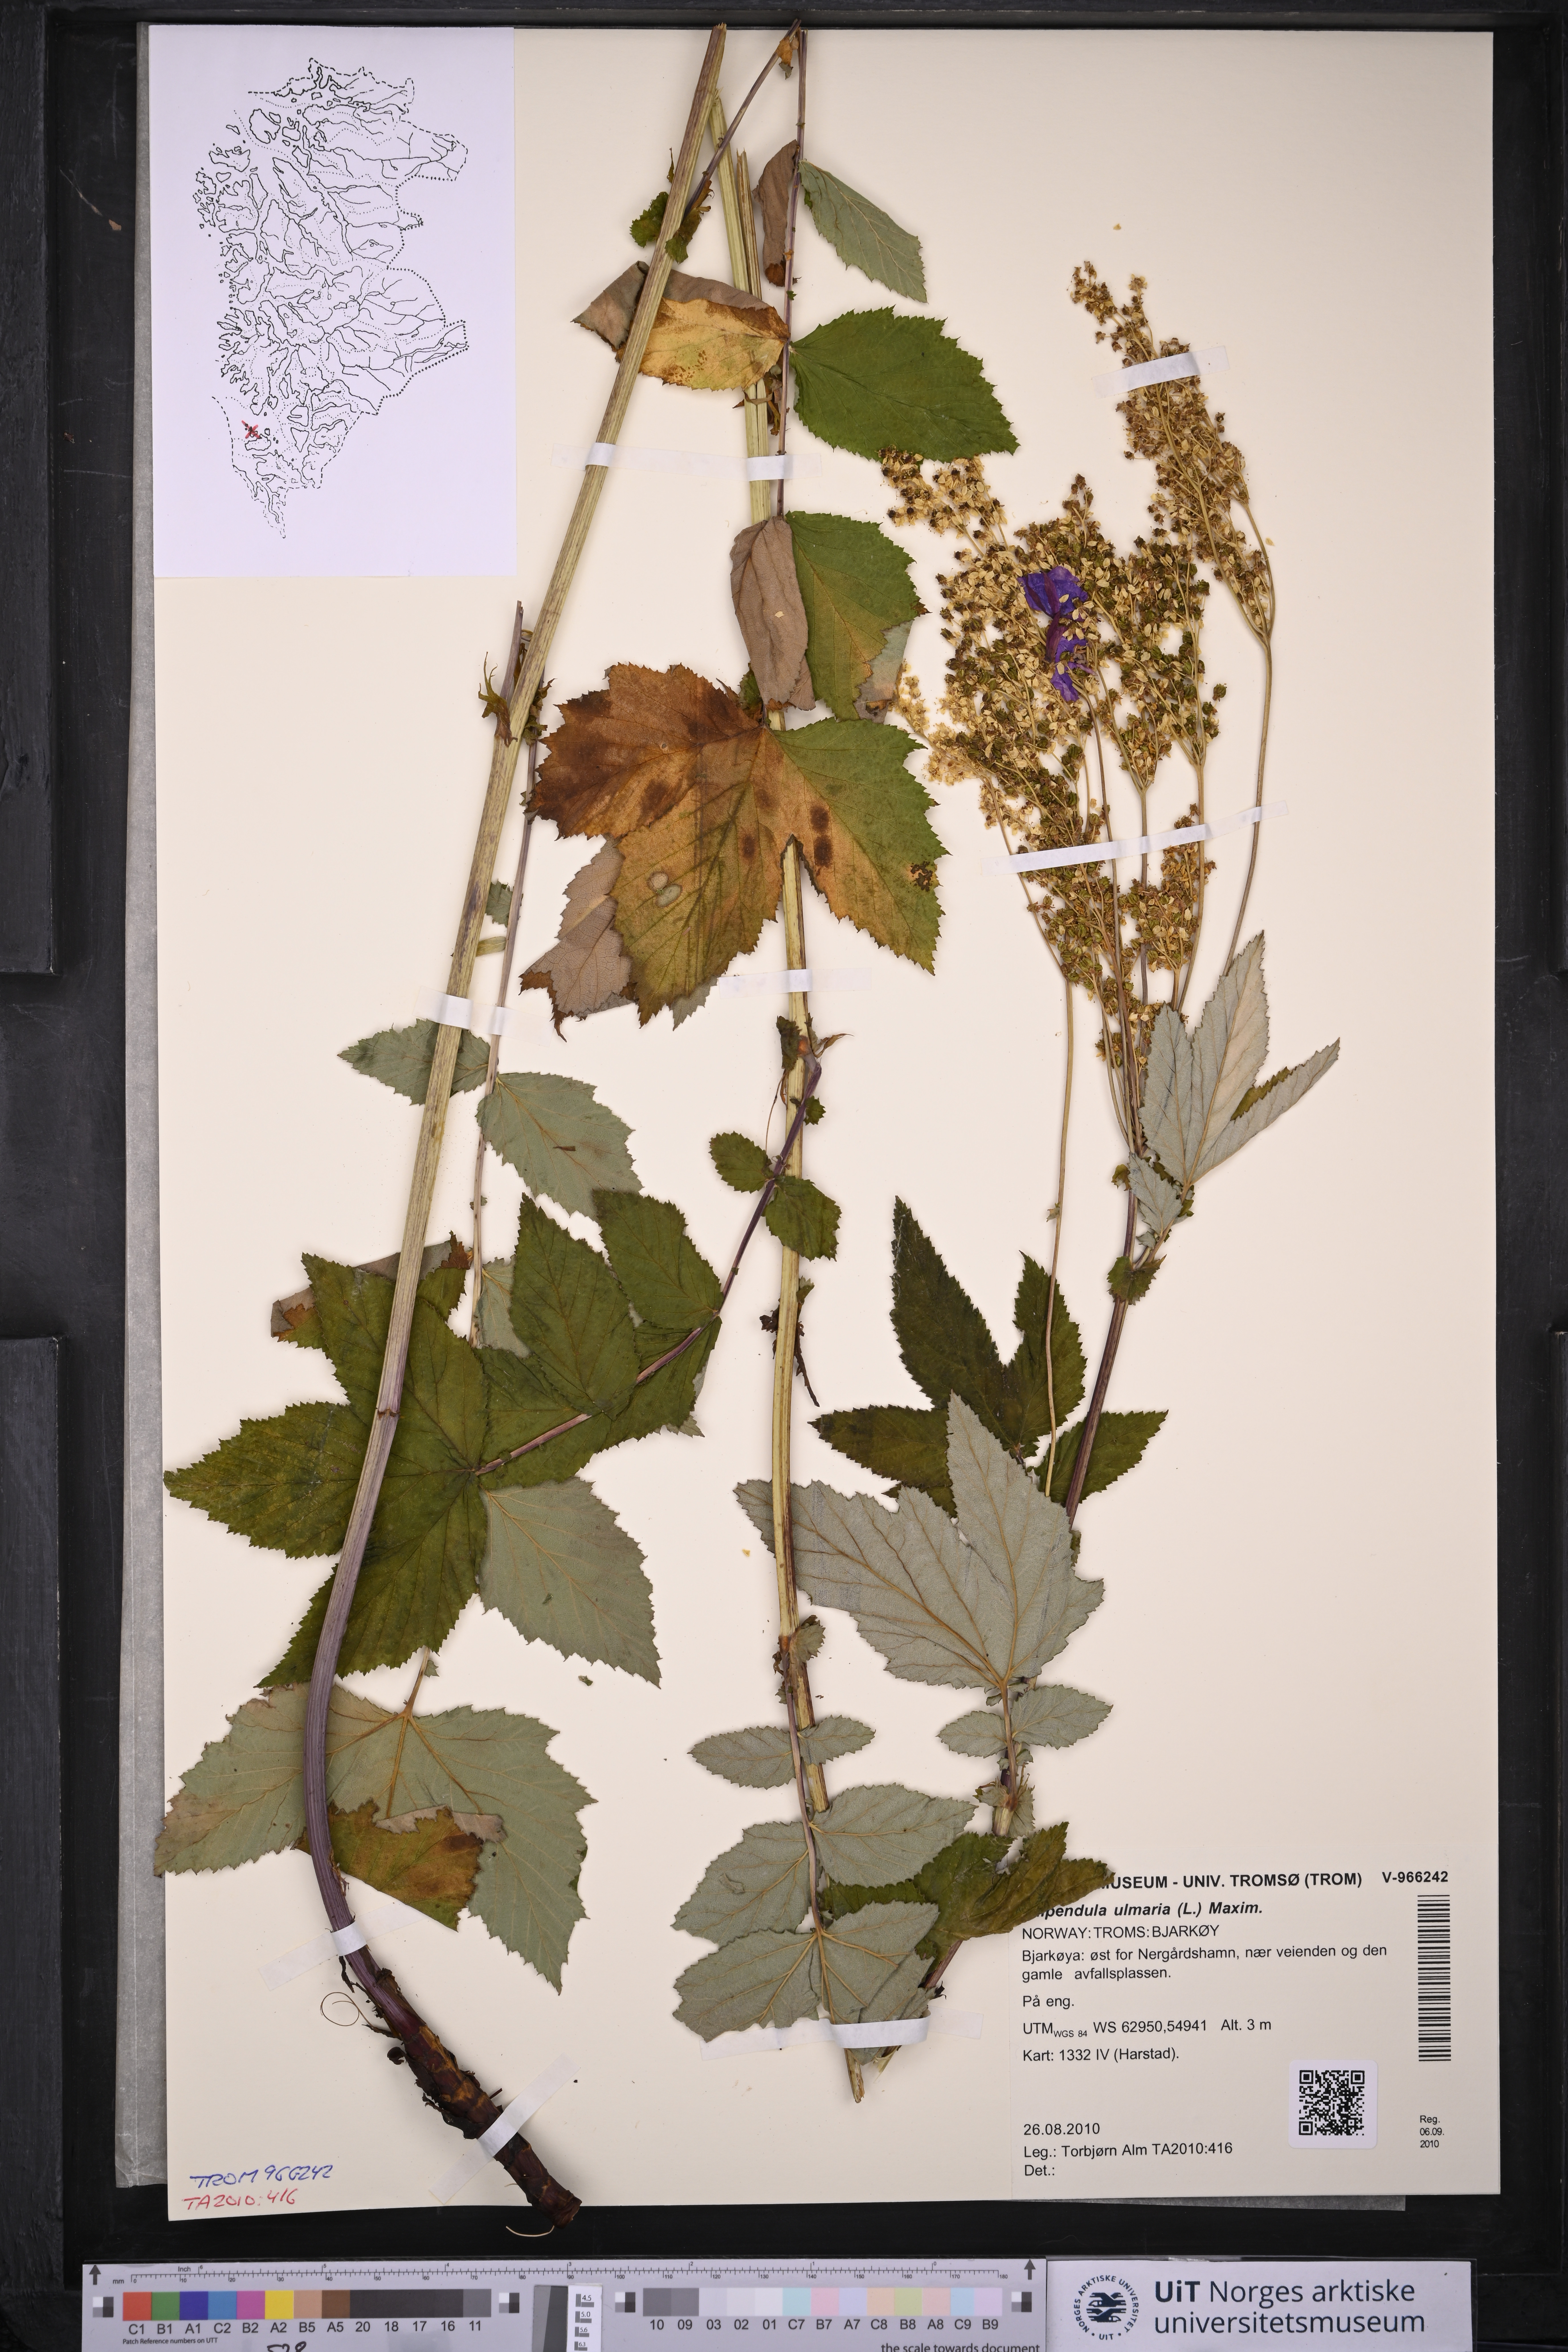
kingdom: Plantae
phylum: Tracheophyta
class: Magnoliopsida
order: Rosales
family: Rosaceae
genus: Filipendula
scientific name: Filipendula ulmaria
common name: Meadowsweet
